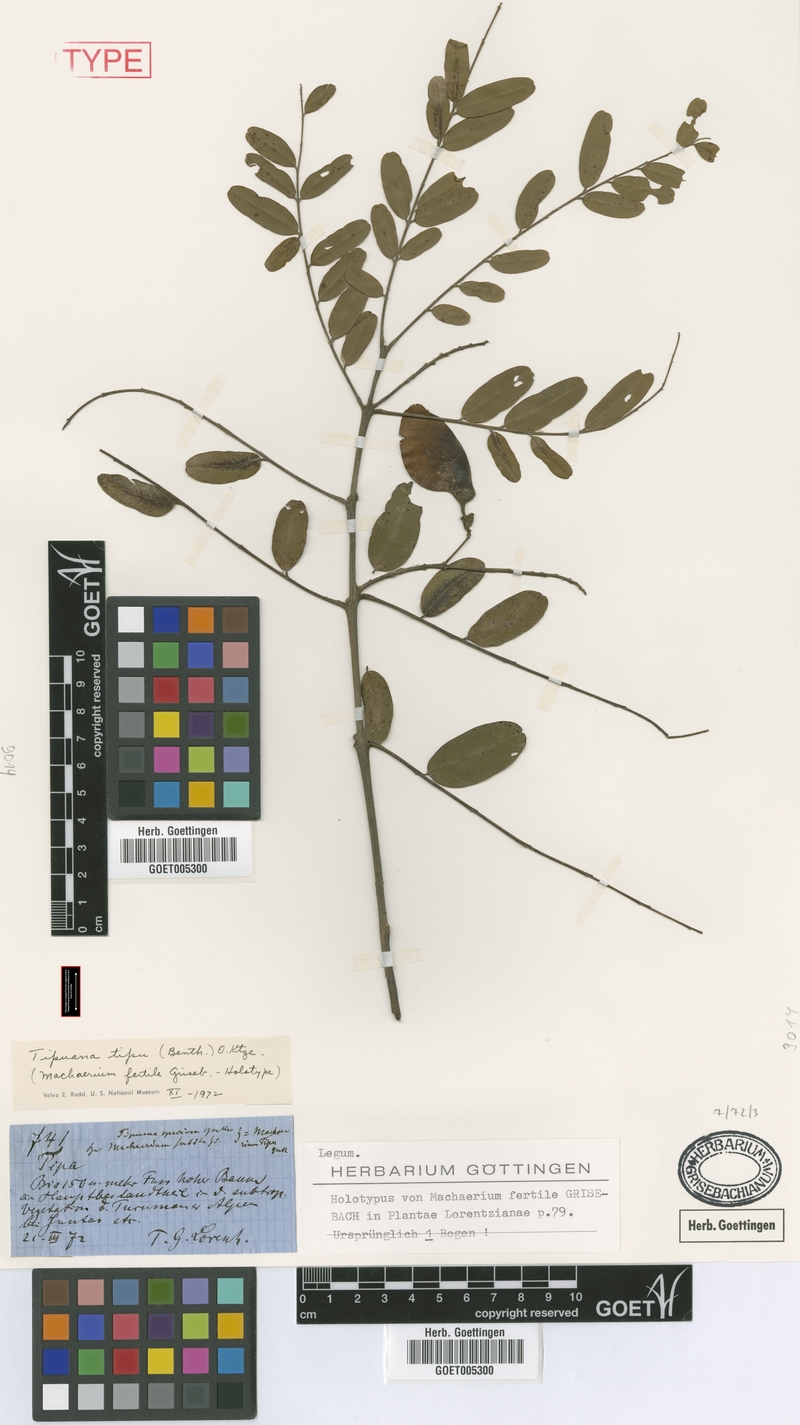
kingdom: Plantae
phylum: Tracheophyta
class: Magnoliopsida
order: Fabales
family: Fabaceae
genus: Tipuana
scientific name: Tipuana tipu
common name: Tiputree
